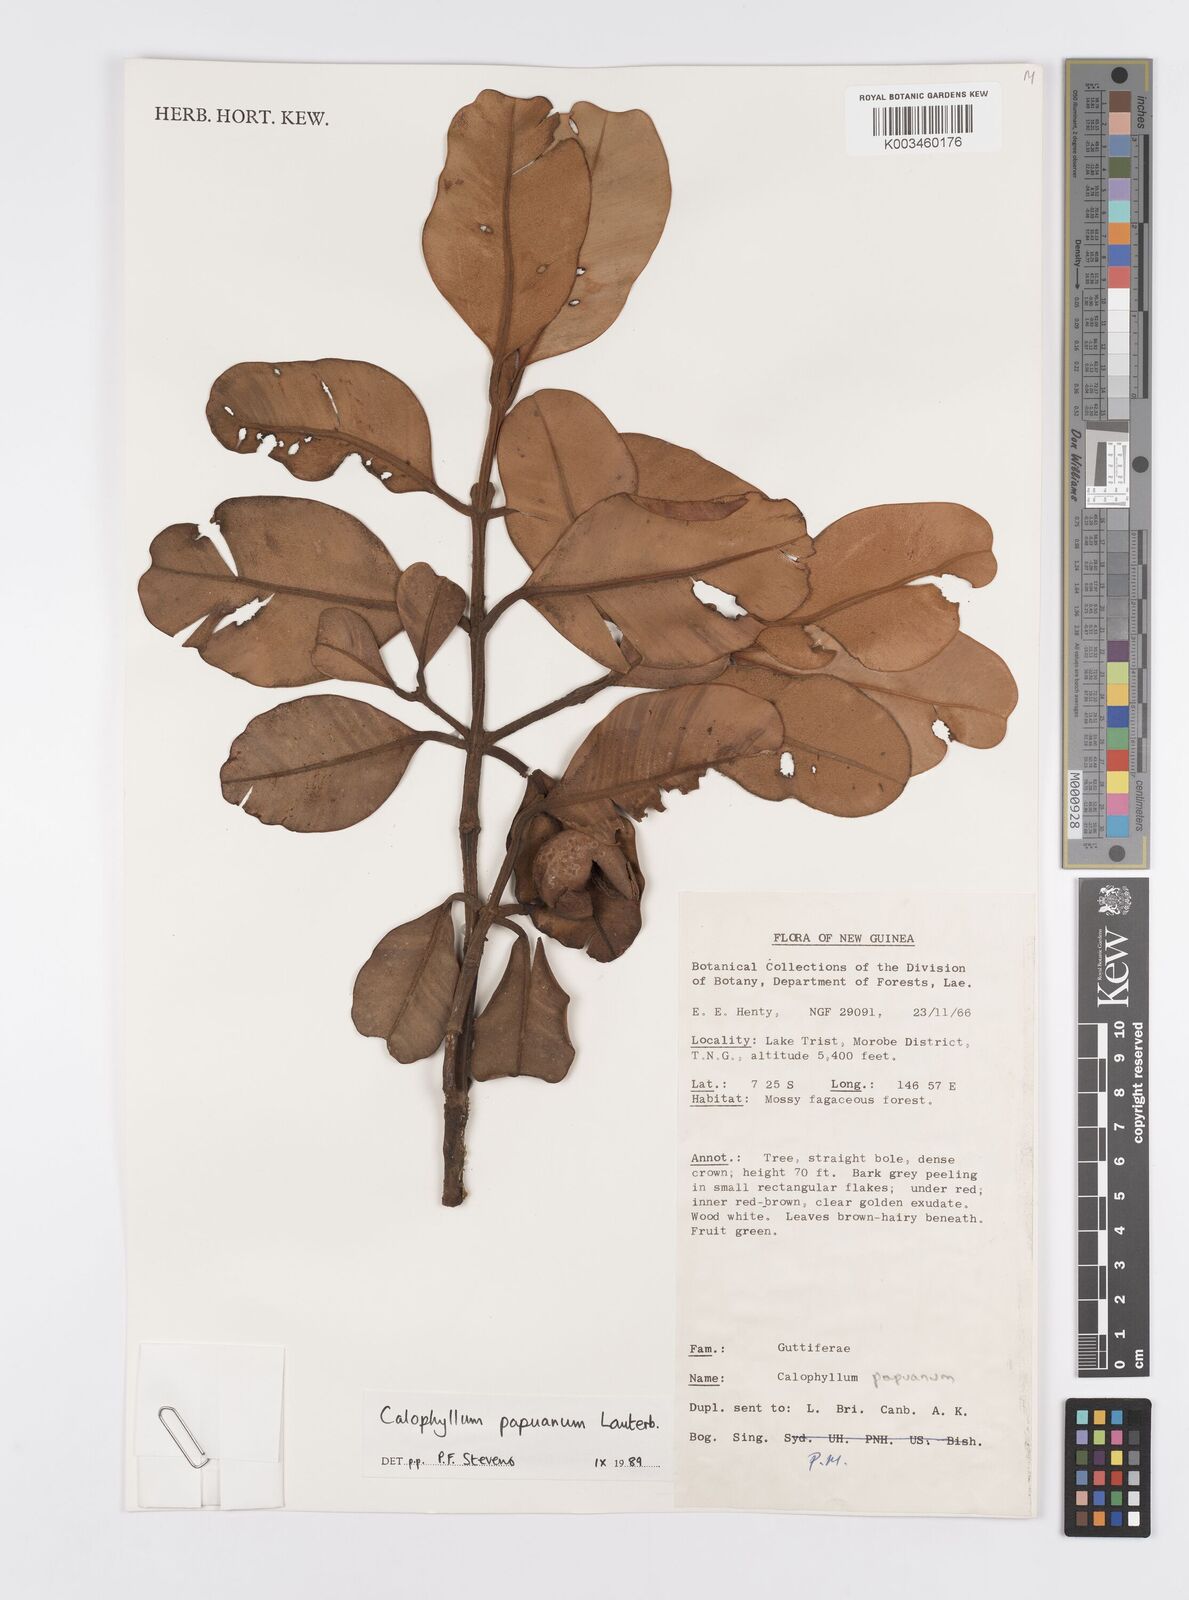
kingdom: Plantae
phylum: Tracheophyta
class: Magnoliopsida
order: Malpighiales
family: Calophyllaceae
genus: Calophyllum
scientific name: Calophyllum papuanum
